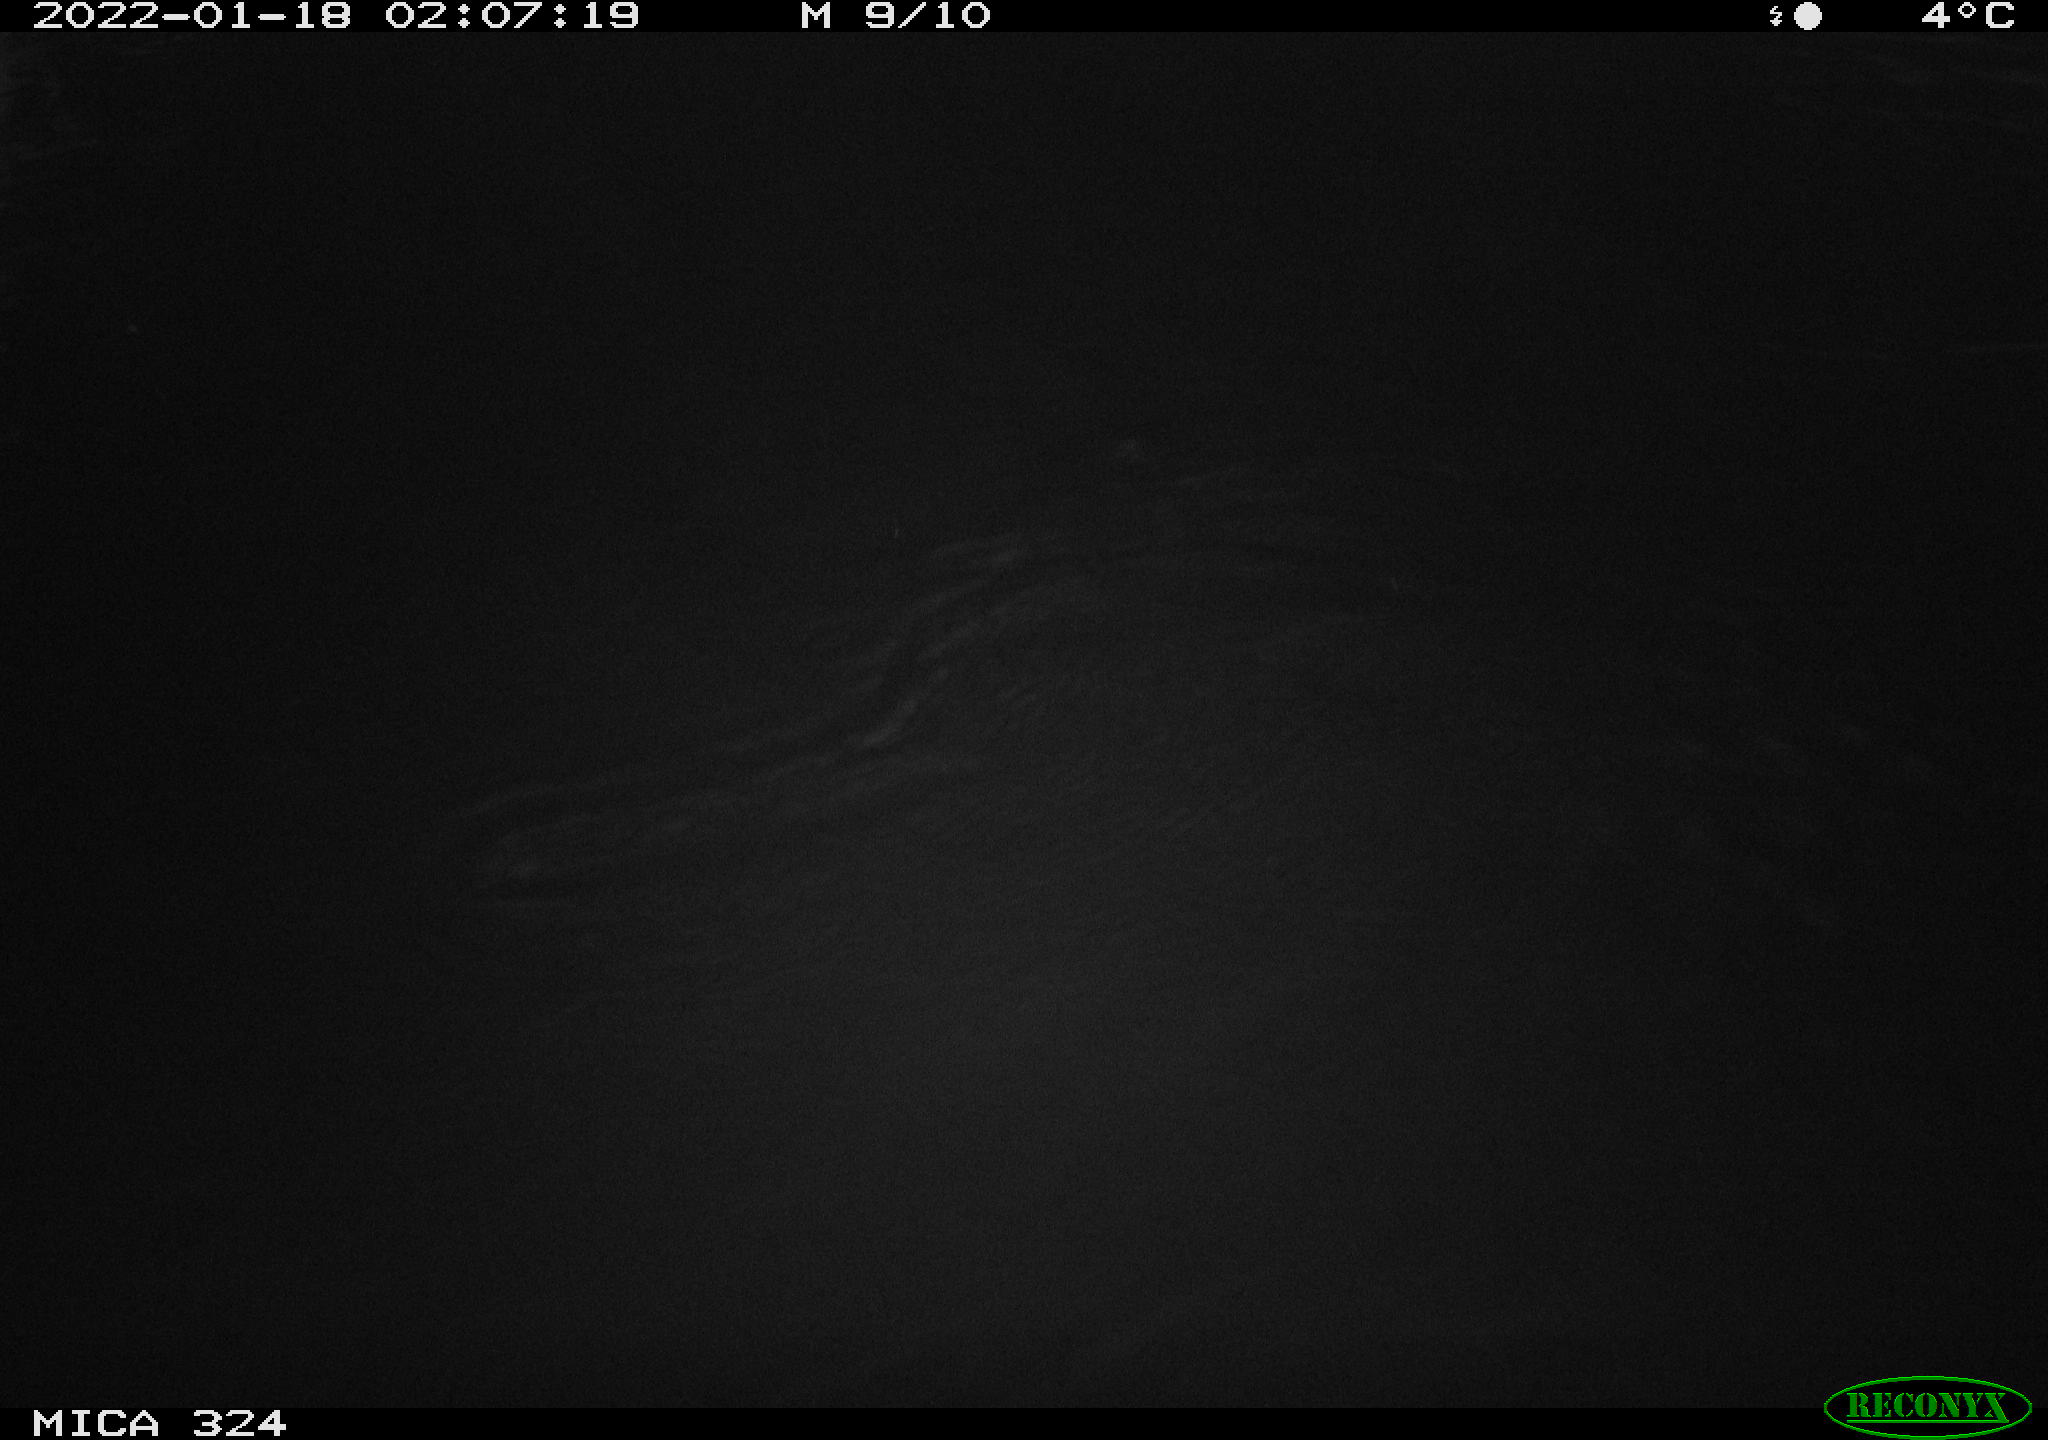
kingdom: Animalia
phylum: Chordata
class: Mammalia
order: Rodentia
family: Cricetidae
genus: Ondatra
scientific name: Ondatra zibethicus
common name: Muskrat
